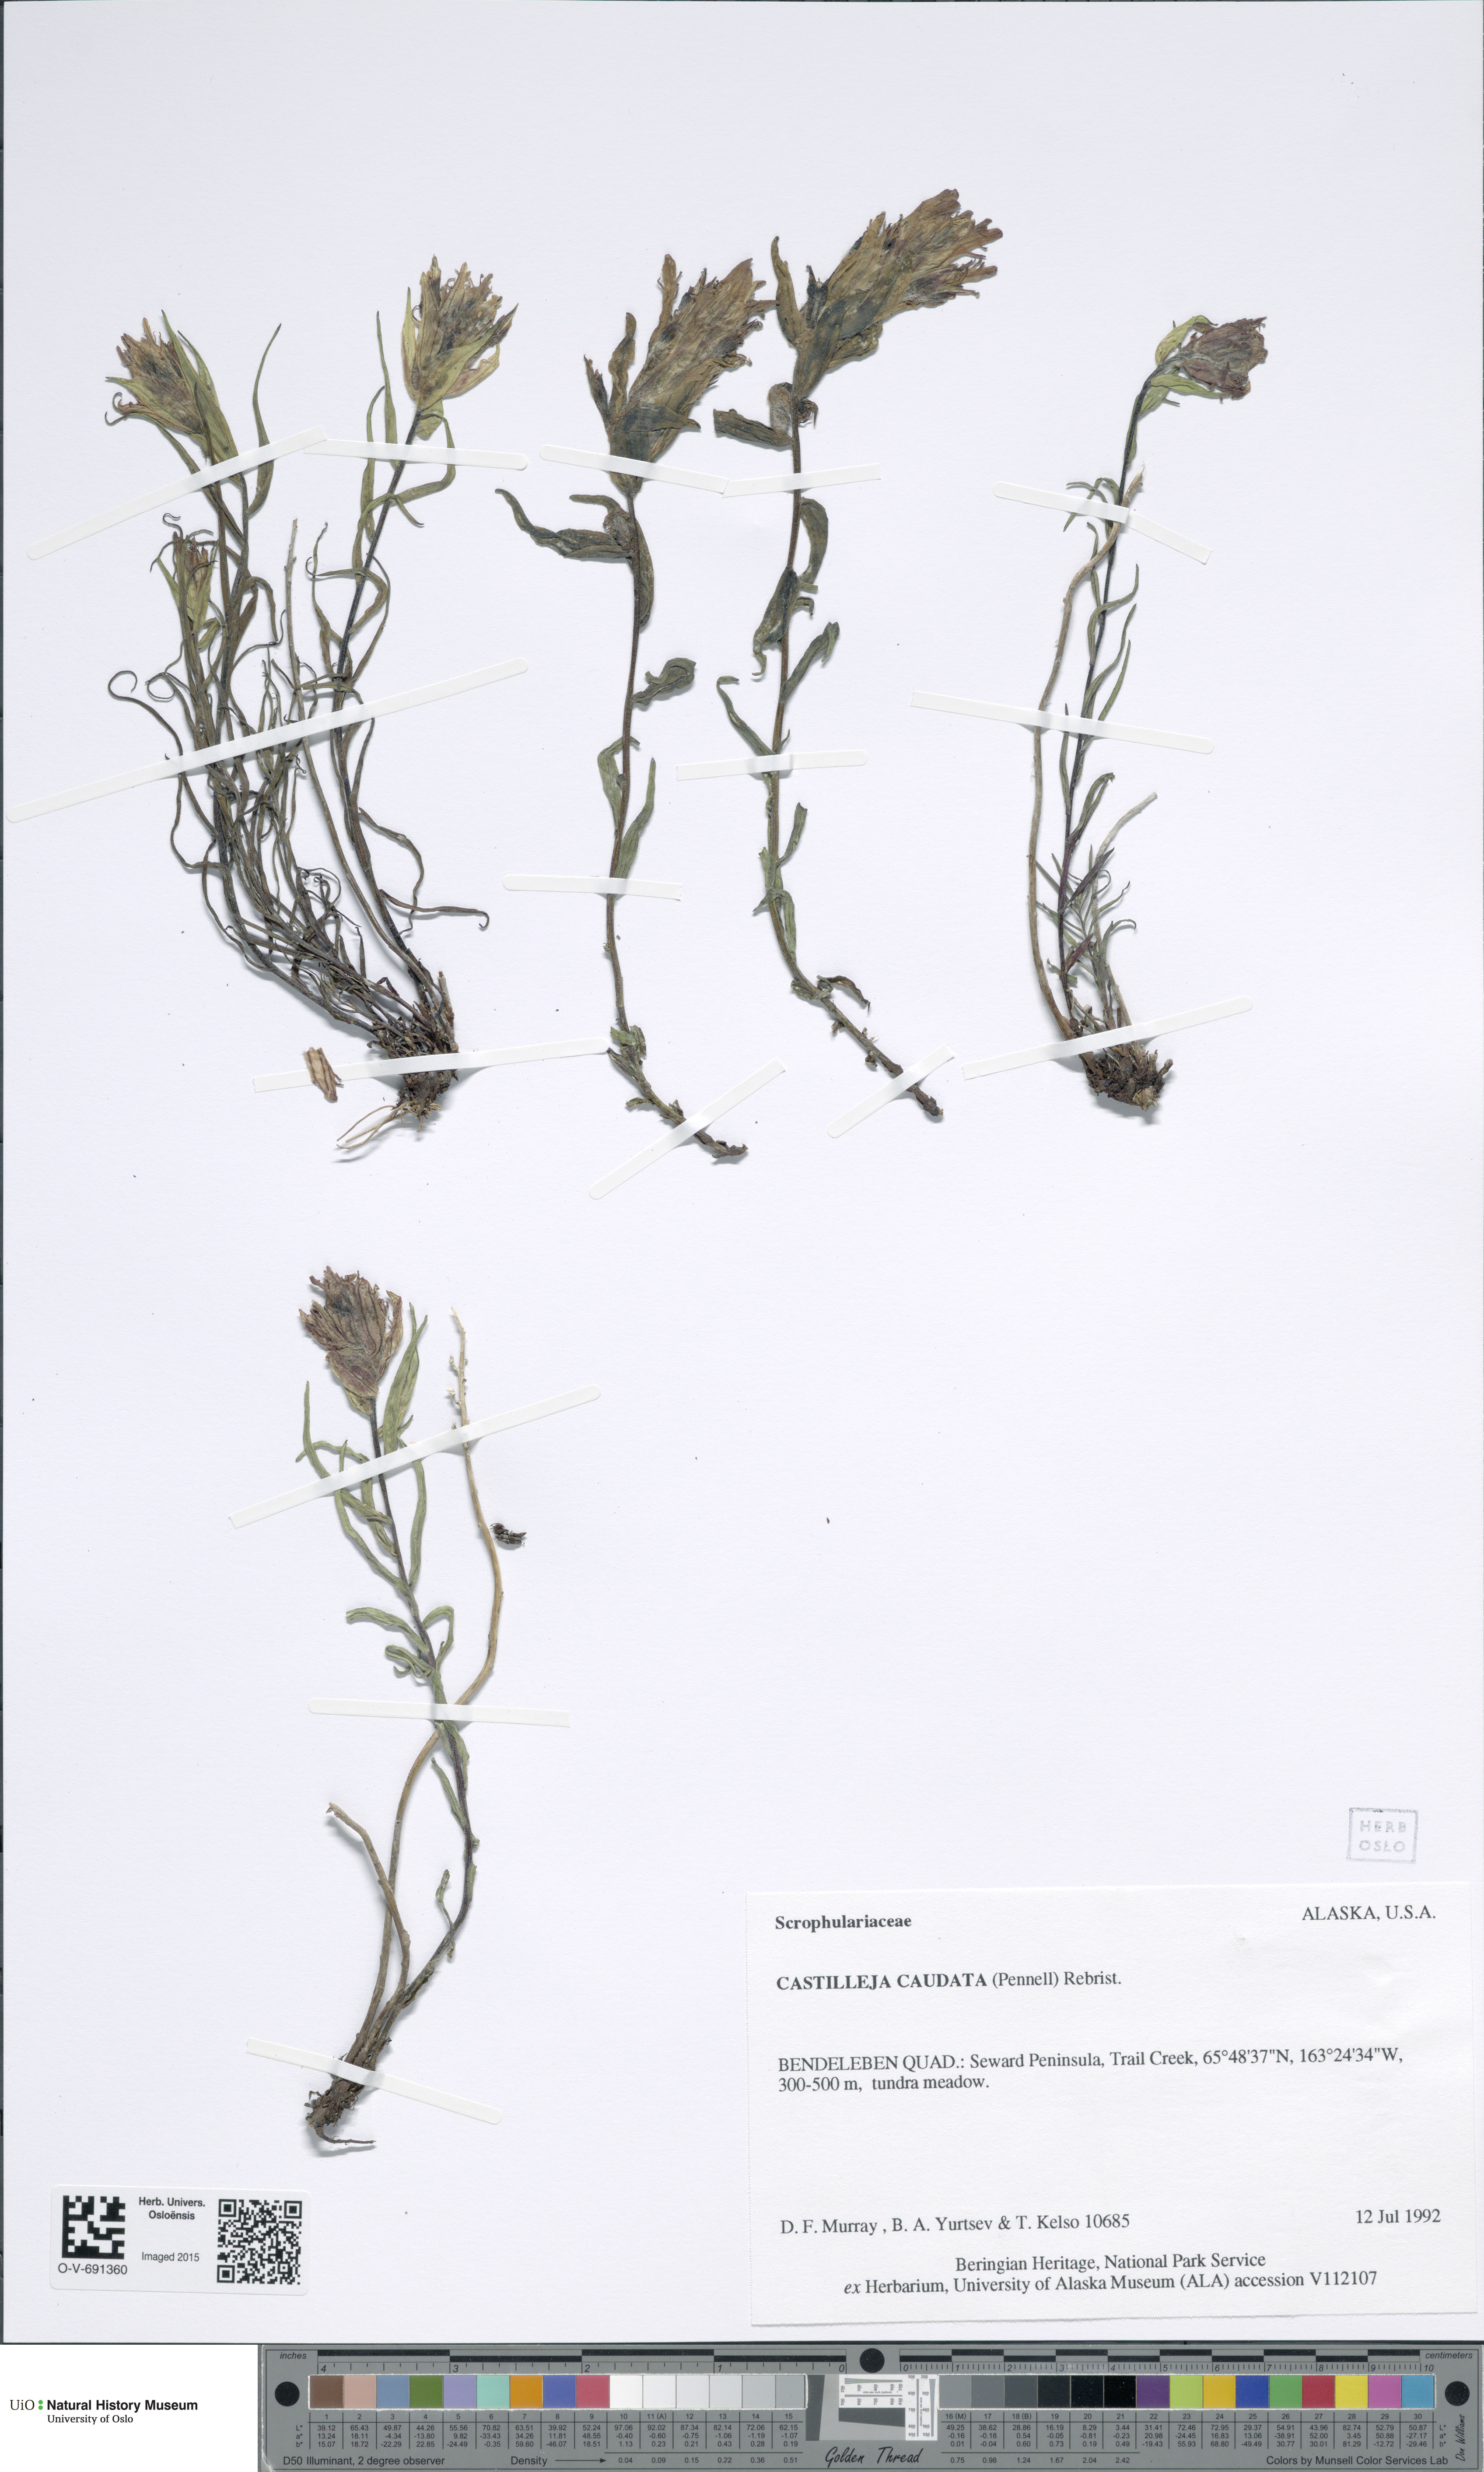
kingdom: Plantae
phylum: Tracheophyta
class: Magnoliopsida
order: Lamiales
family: Orobanchaceae
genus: Castilleja
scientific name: Castilleja pallida
